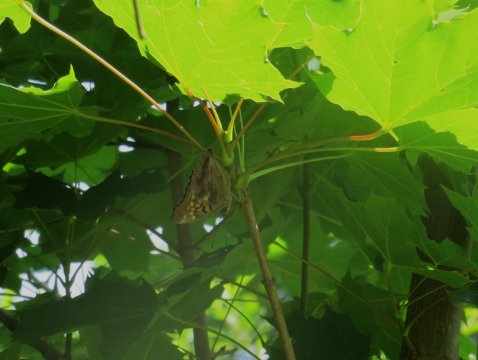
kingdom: Animalia
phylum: Arthropoda
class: Insecta
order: Lepidoptera
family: Nymphalidae
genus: Asterocampa
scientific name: Asterocampa clyton
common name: Tawny Emperor
